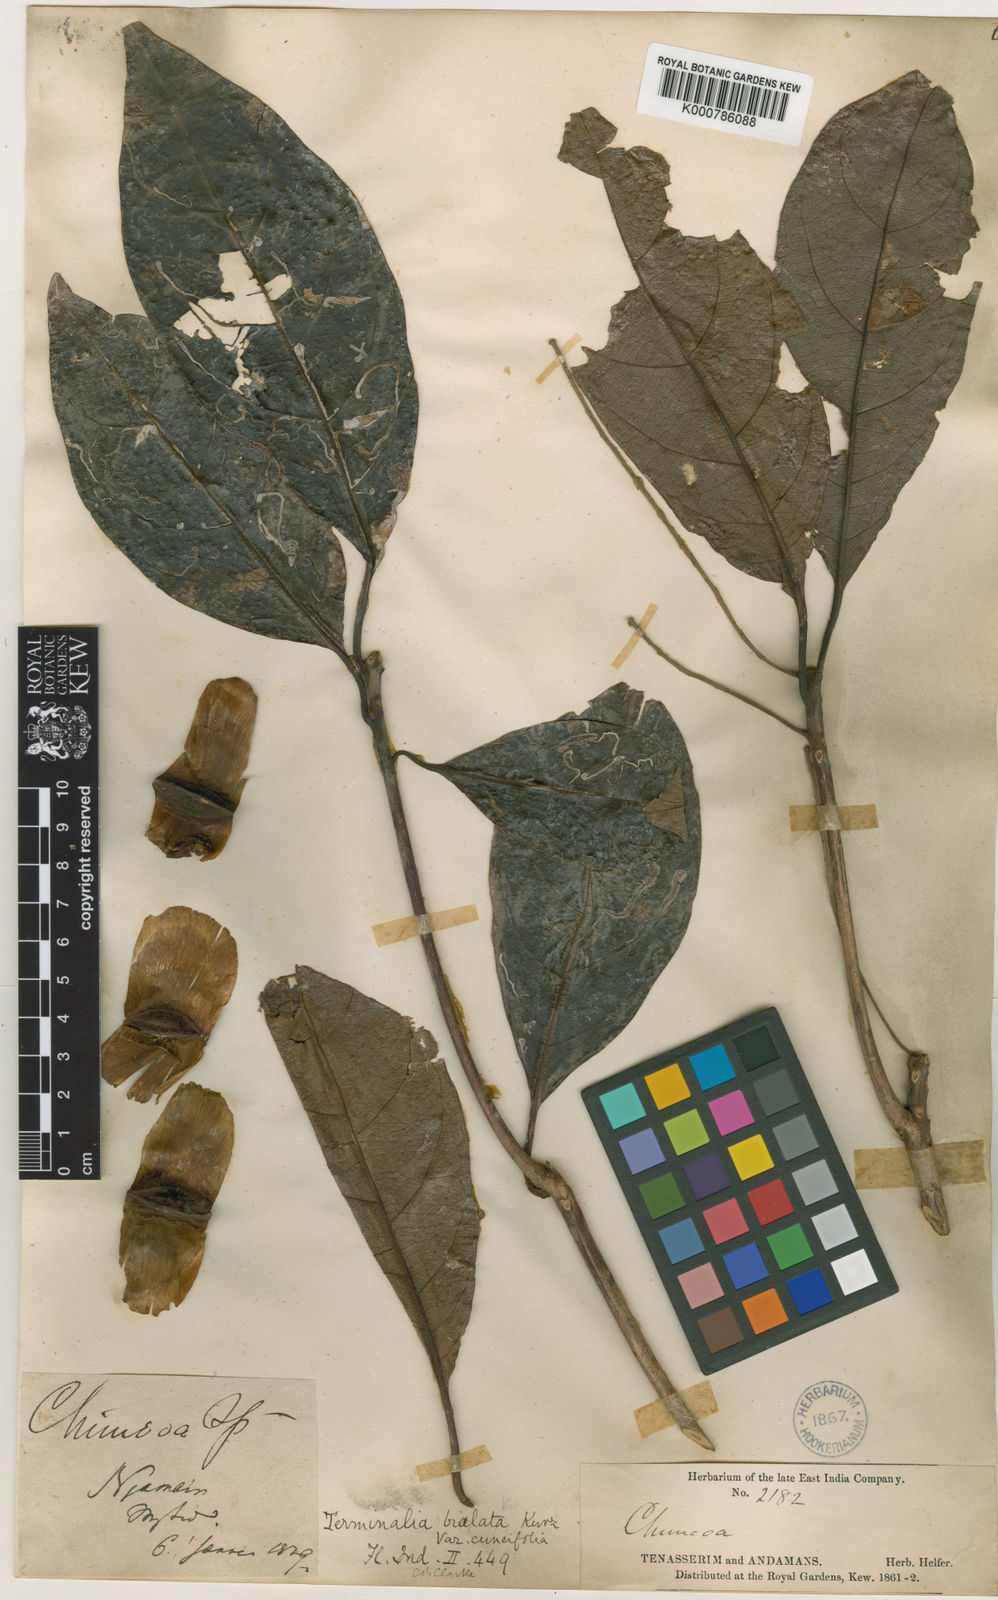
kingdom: Plantae
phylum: Tracheophyta
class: Magnoliopsida
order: Myrtales
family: Combretaceae
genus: Terminalia
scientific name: Terminalia
